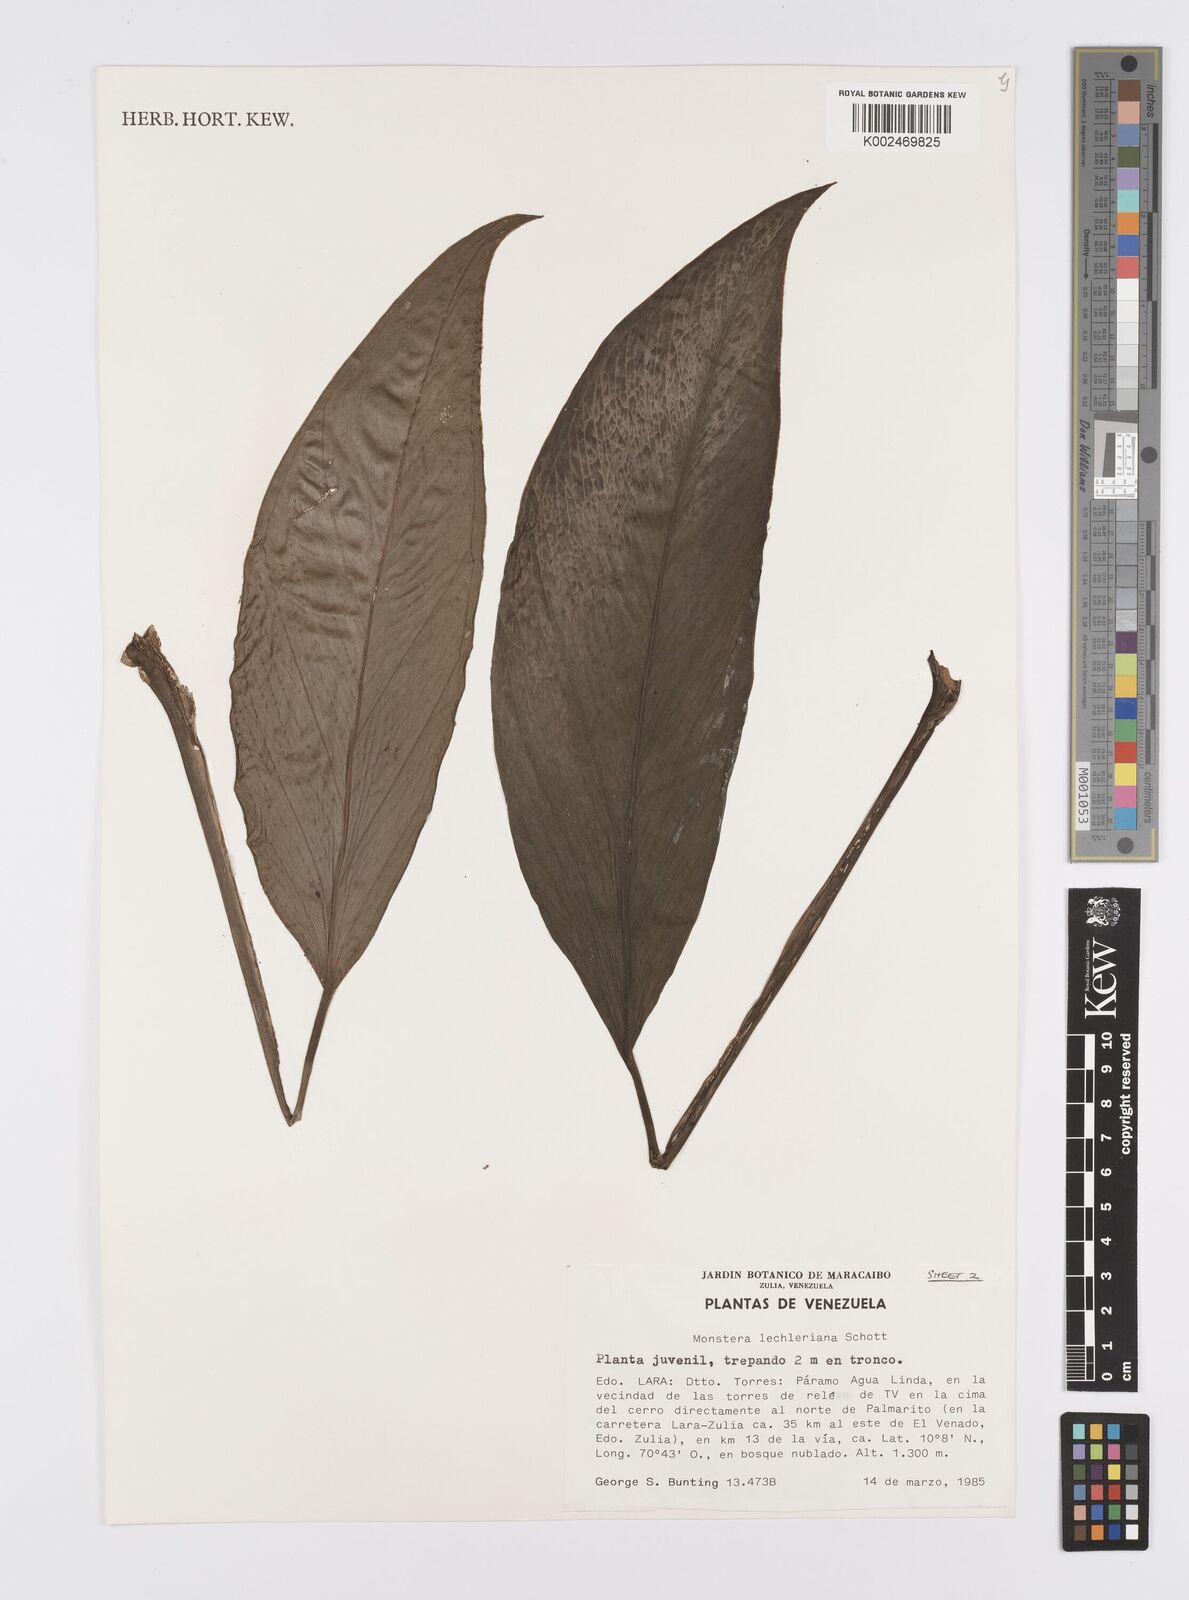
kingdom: Plantae
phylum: Tracheophyta
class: Liliopsida
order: Alismatales
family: Araceae
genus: Monstera
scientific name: Monstera lechleriana
